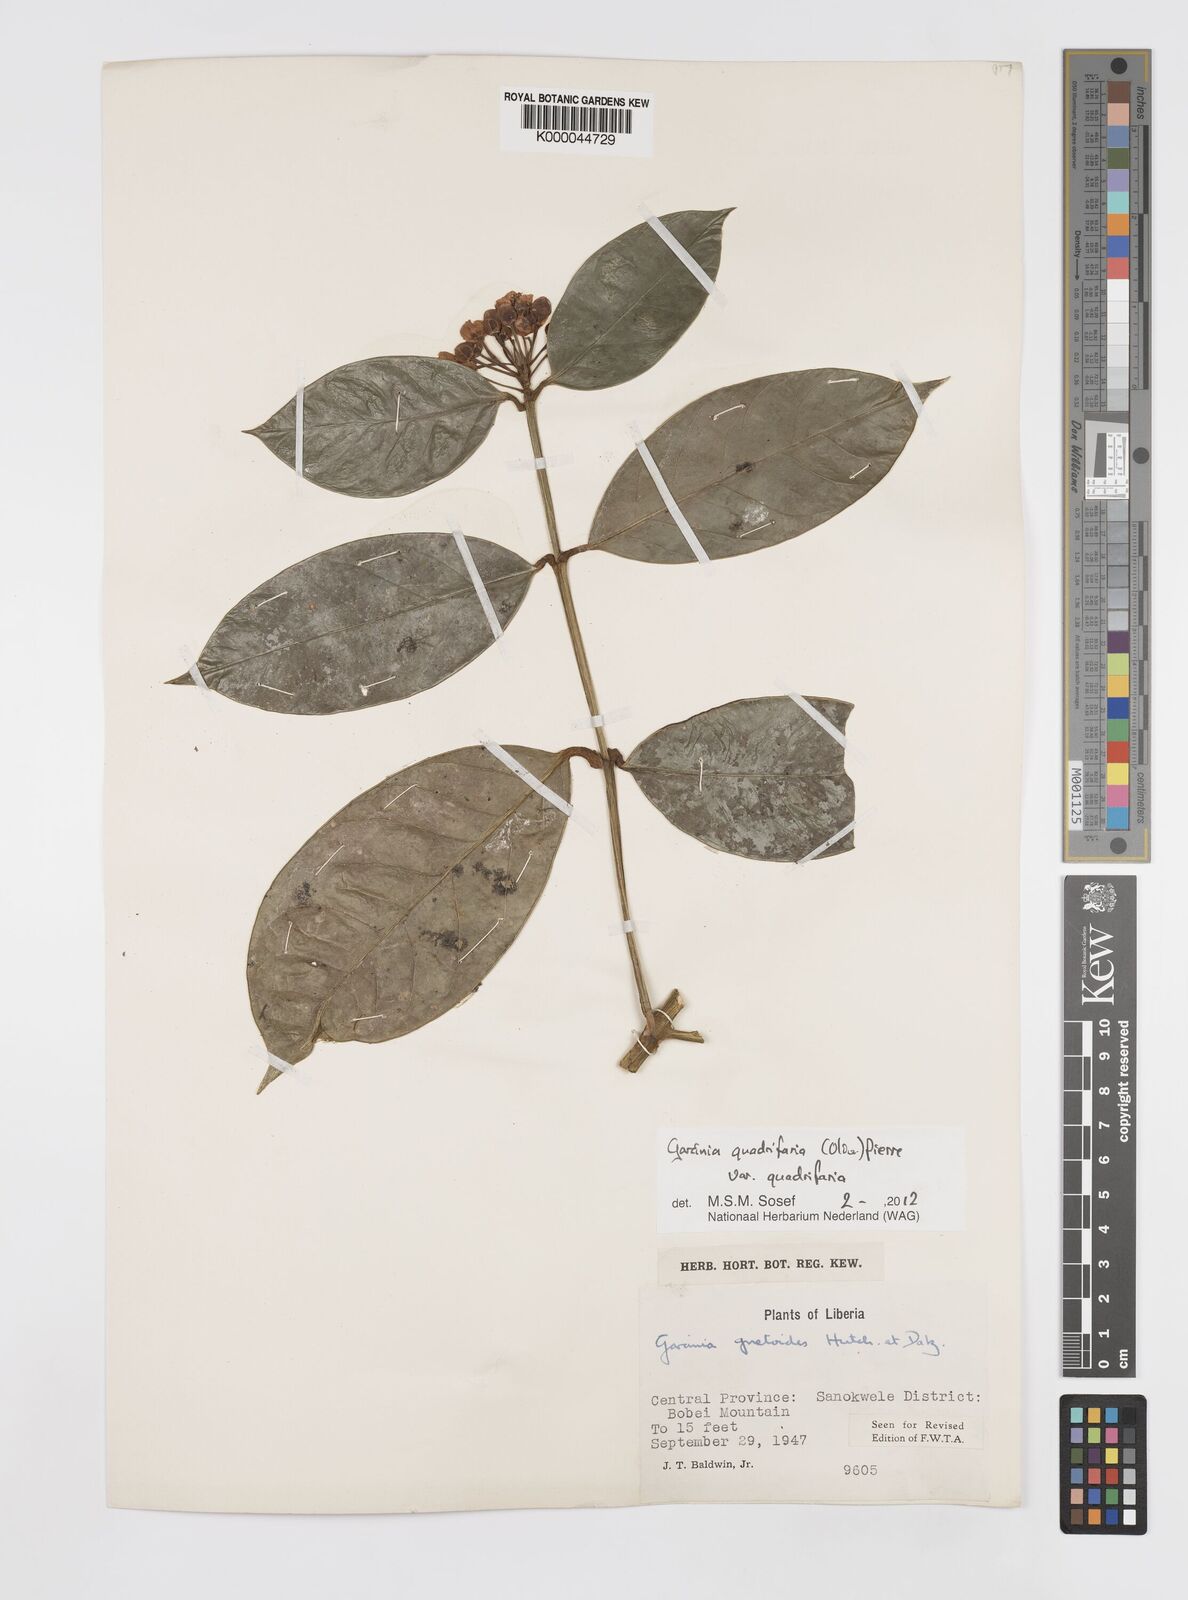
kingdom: Plantae
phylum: Tracheophyta
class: Magnoliopsida
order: Malpighiales
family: Clusiaceae
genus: Garcinia
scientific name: Garcinia gnetoides
